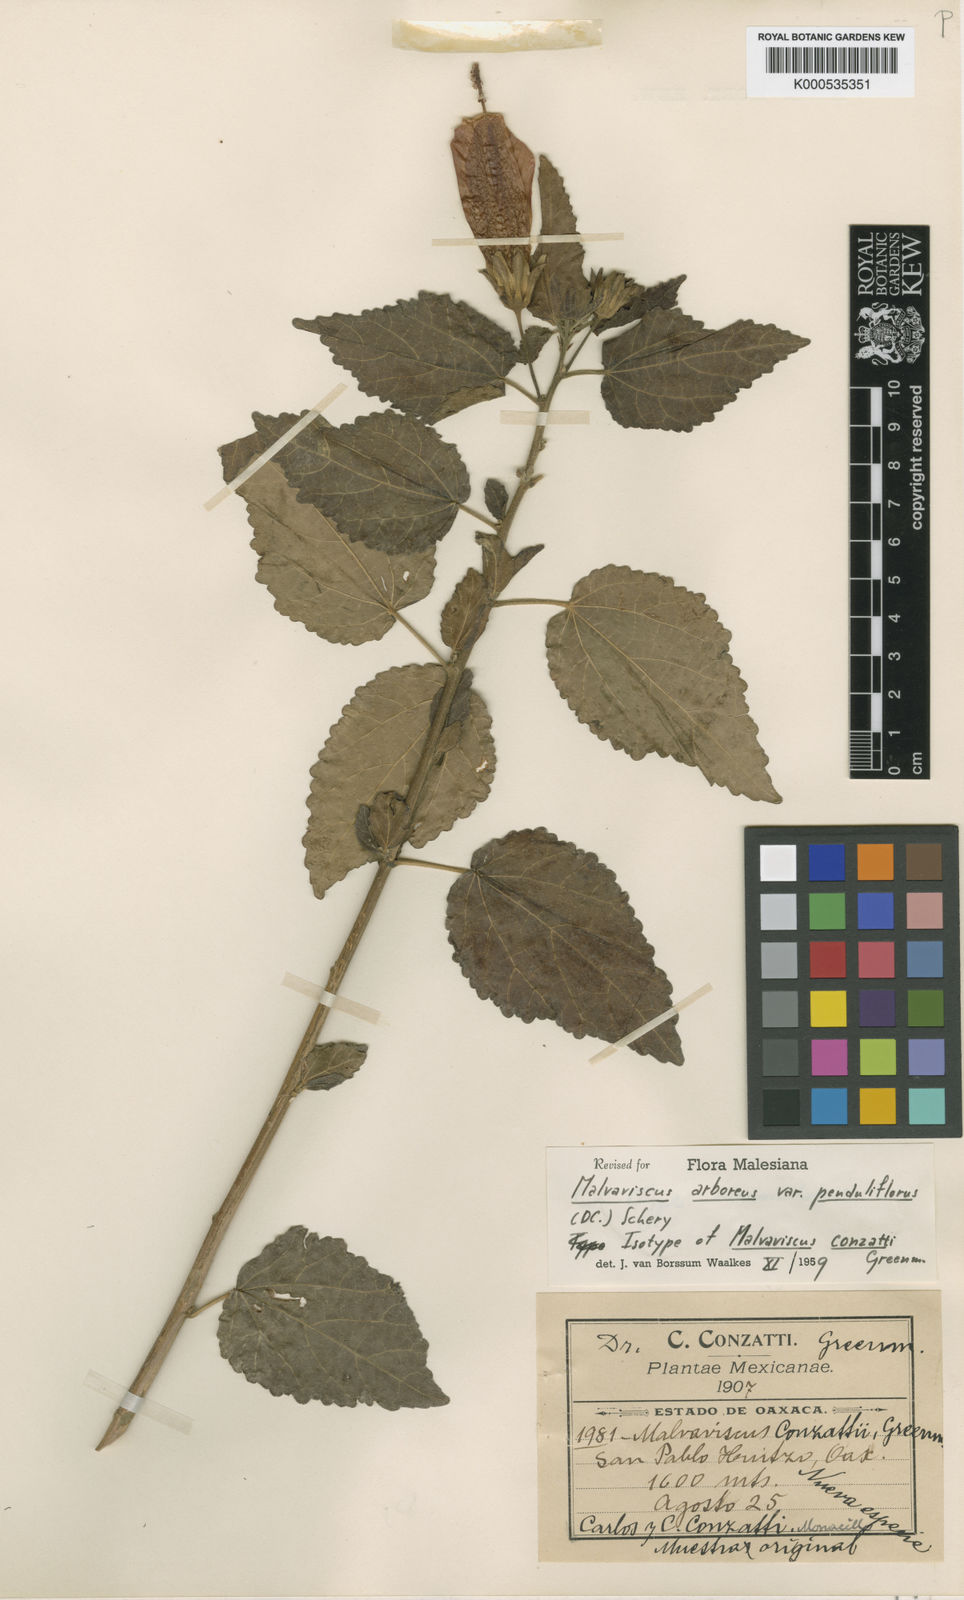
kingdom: Plantae
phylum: Tracheophyta
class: Magnoliopsida
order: Malvales
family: Malvaceae
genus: Malvaviscus
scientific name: Malvaviscus penduliflorus
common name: Mazapan
